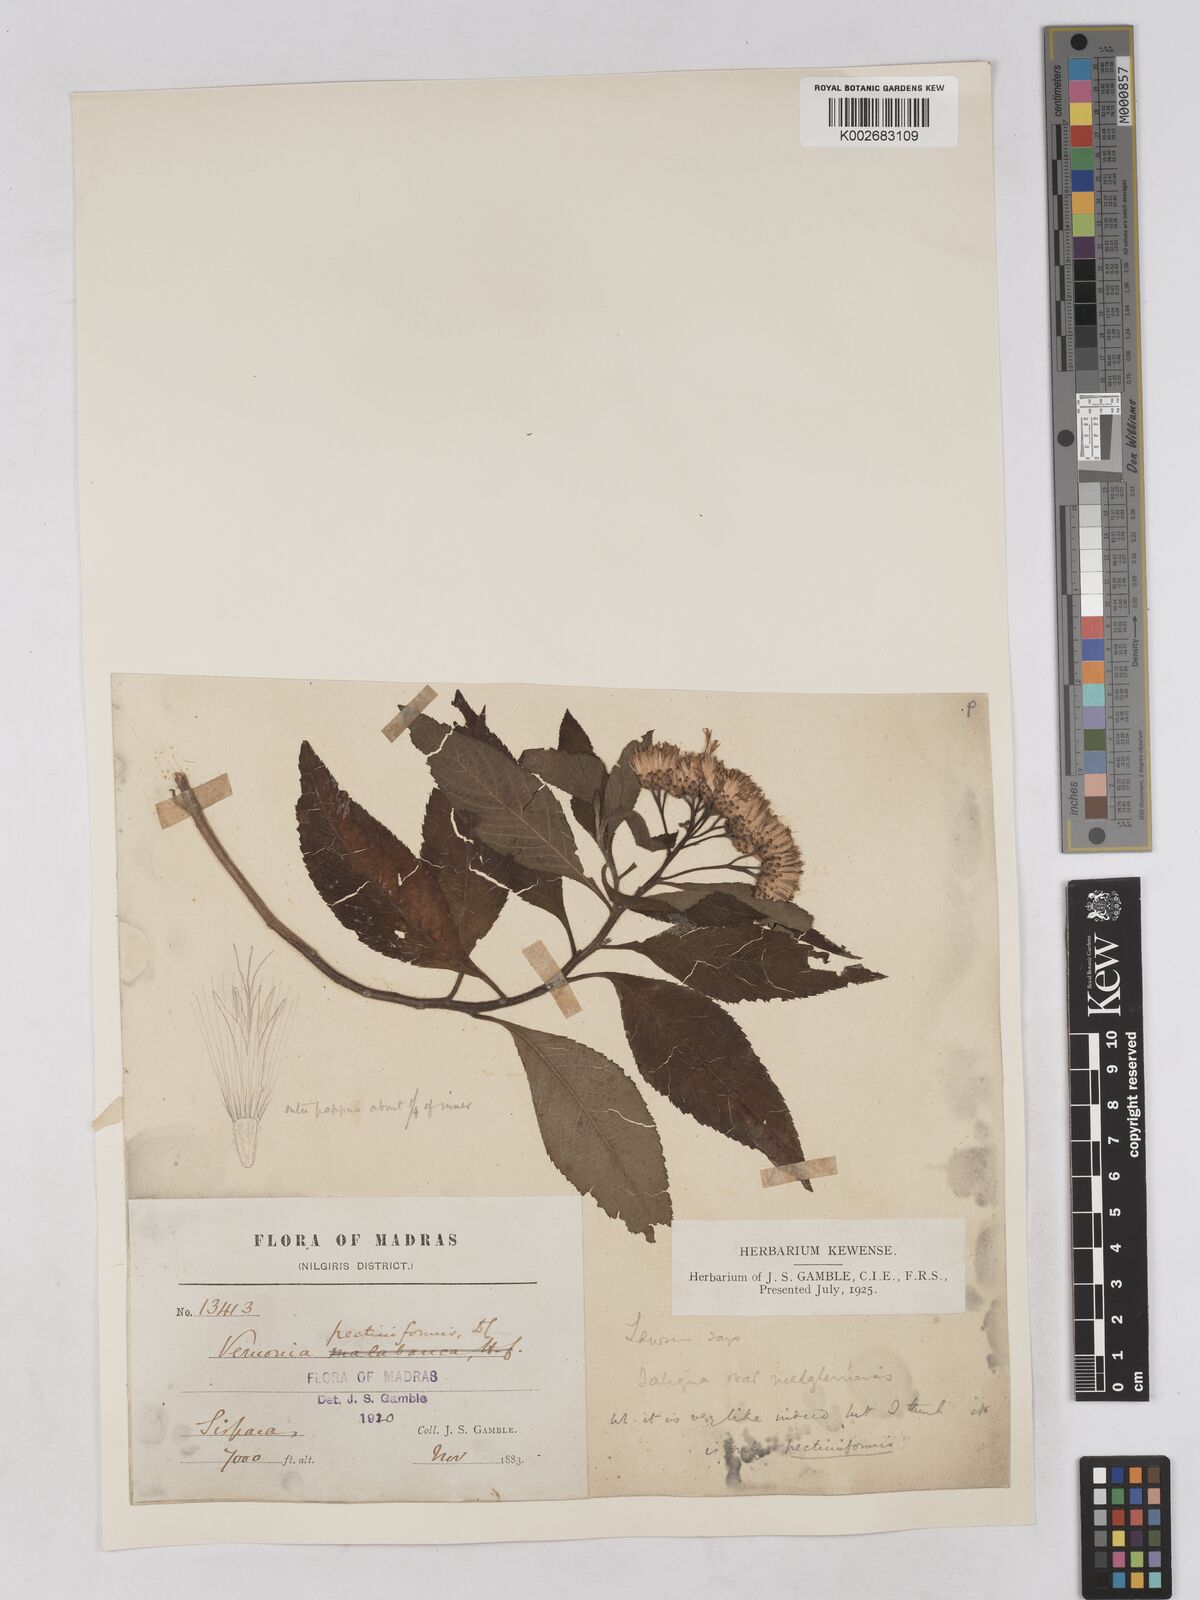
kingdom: Plantae
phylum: Tracheophyta
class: Magnoliopsida
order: Asterales
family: Asteraceae
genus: Gymnanthemum
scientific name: Gymnanthemum pectiniforme
